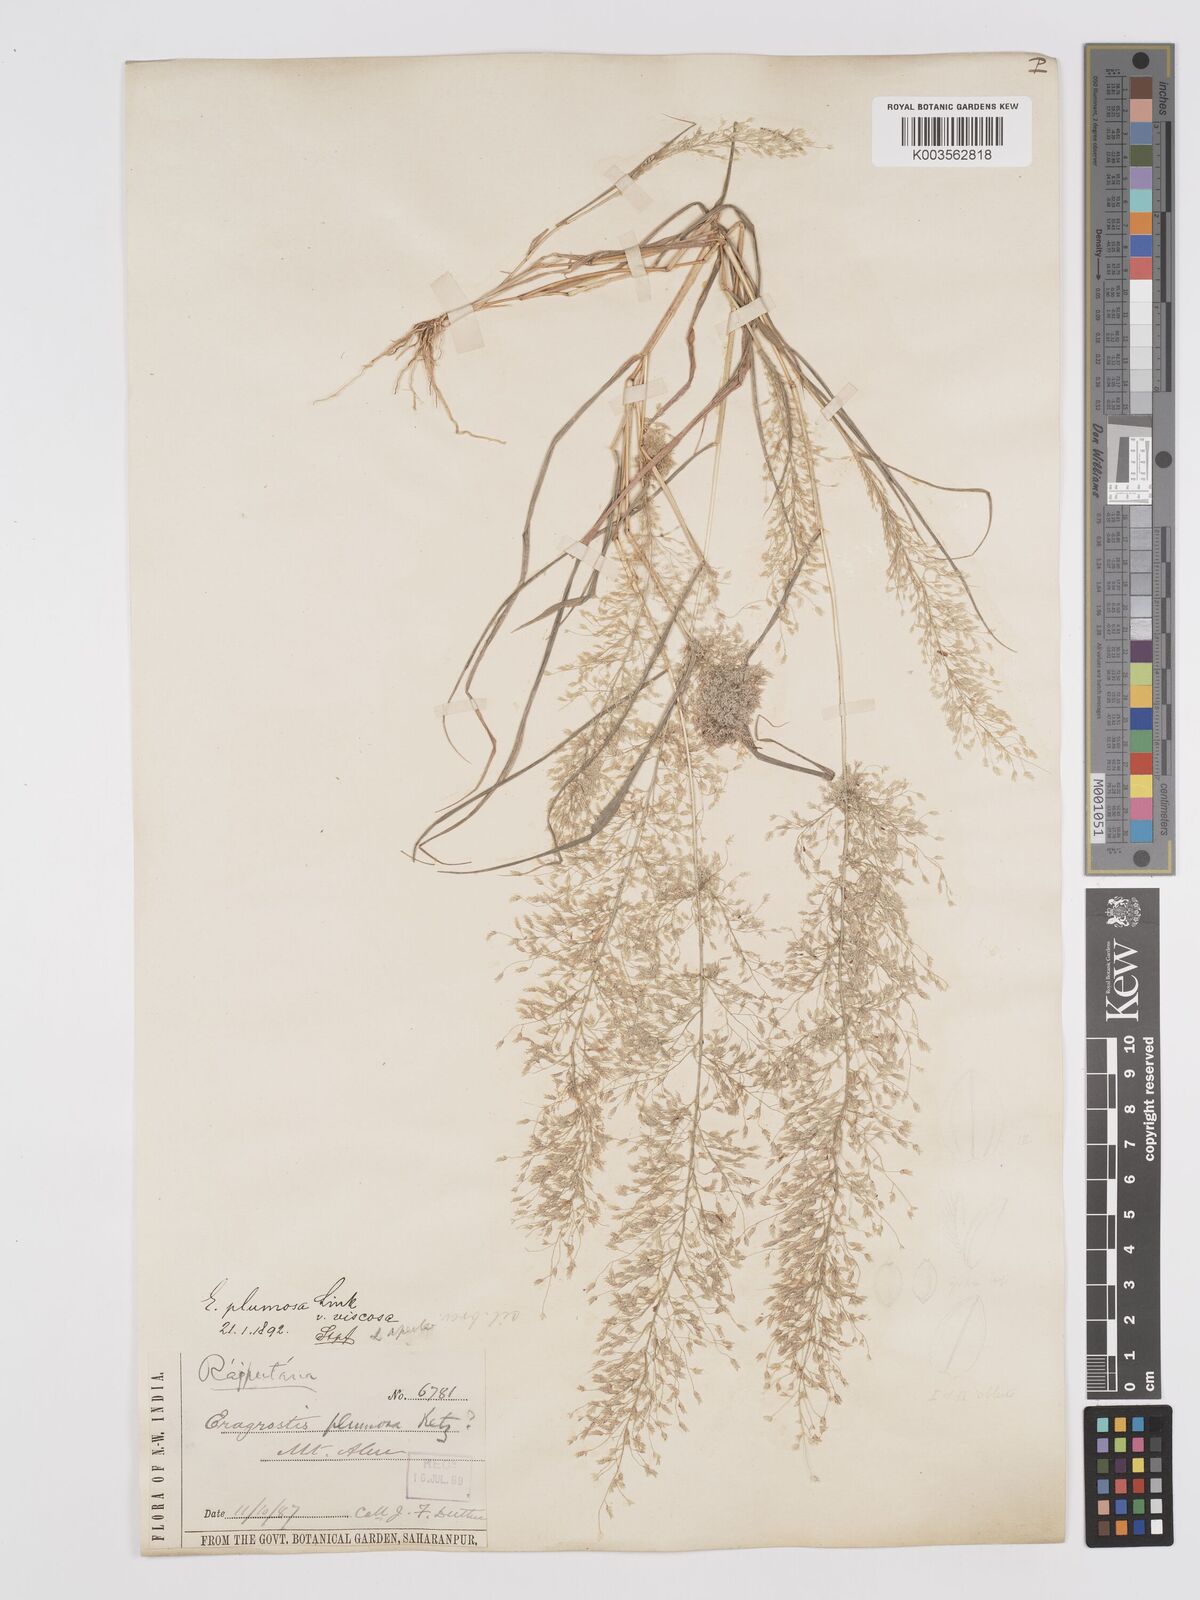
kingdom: Plantae
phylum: Tracheophyta
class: Liliopsida
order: Poales
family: Poaceae
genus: Eragrostis
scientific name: Eragrostis viscosa
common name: Sticky love grass
